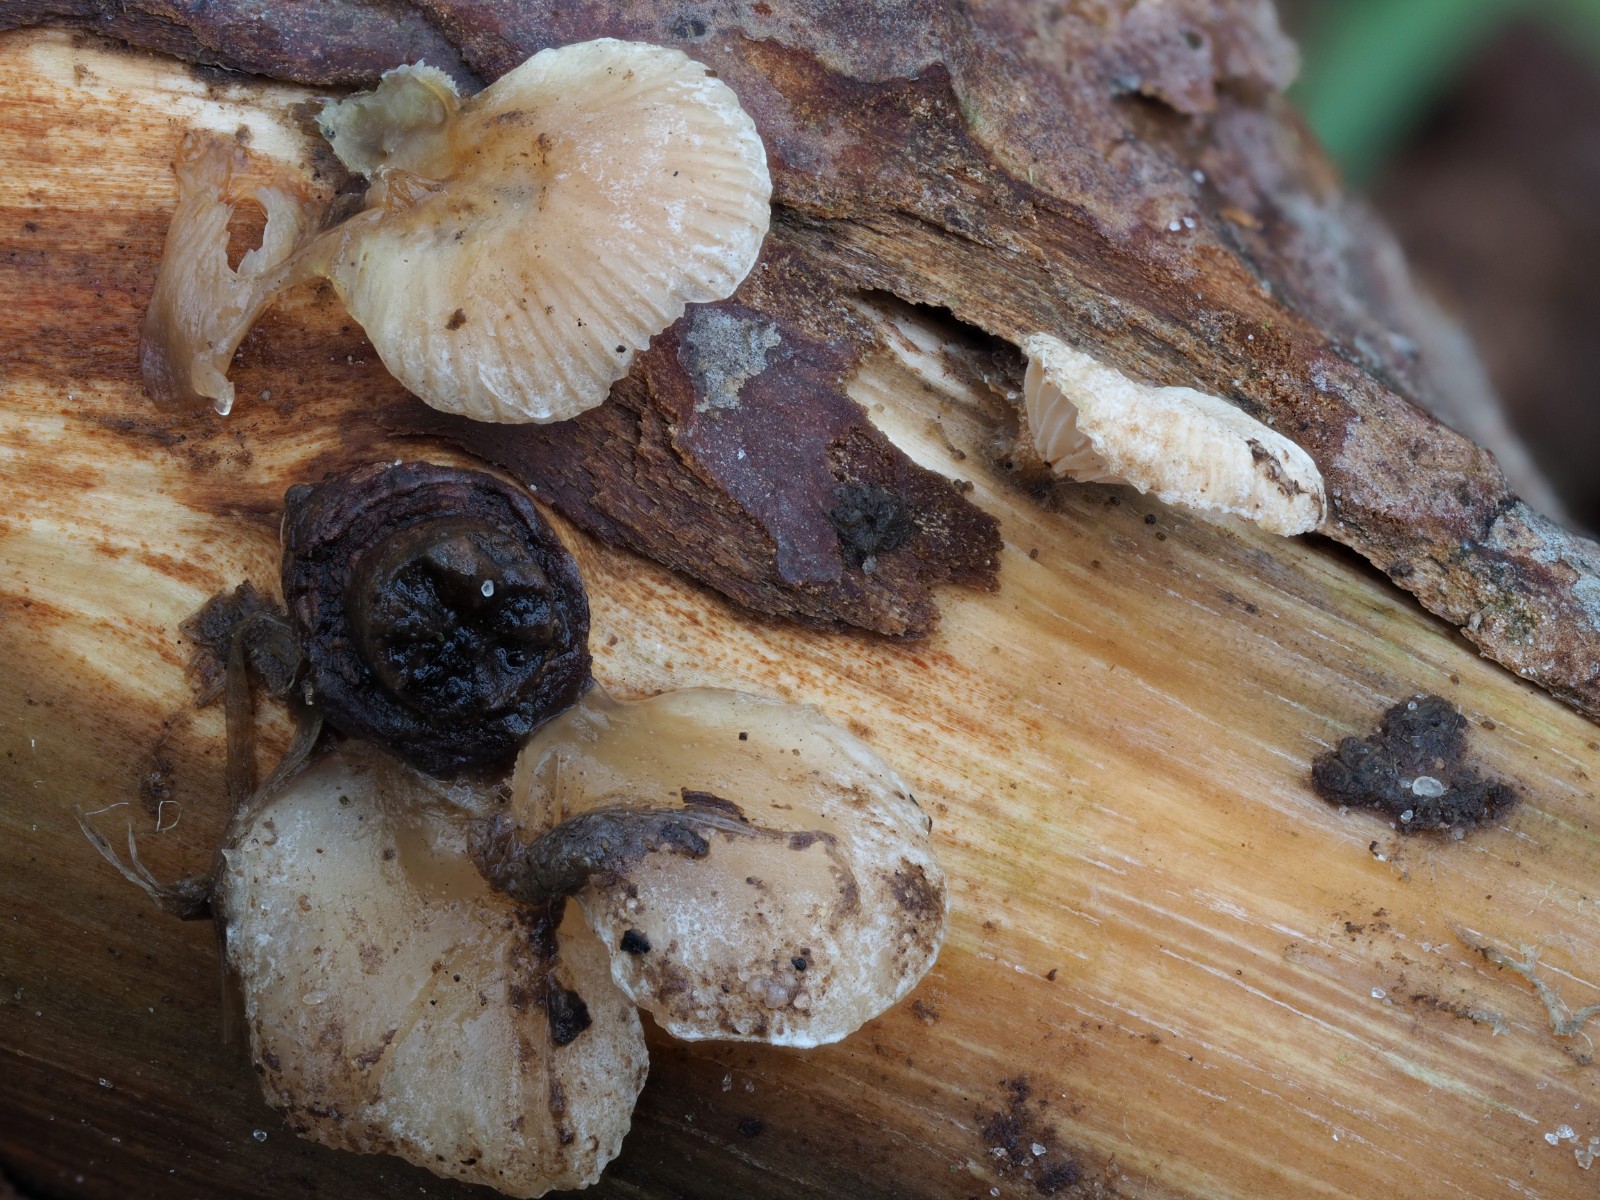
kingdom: Fungi
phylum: Basidiomycota
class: Agaricomycetes
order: Agaricales
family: Mycenaceae
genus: Panellus
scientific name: Panellus mitis
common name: mild epaulethat
